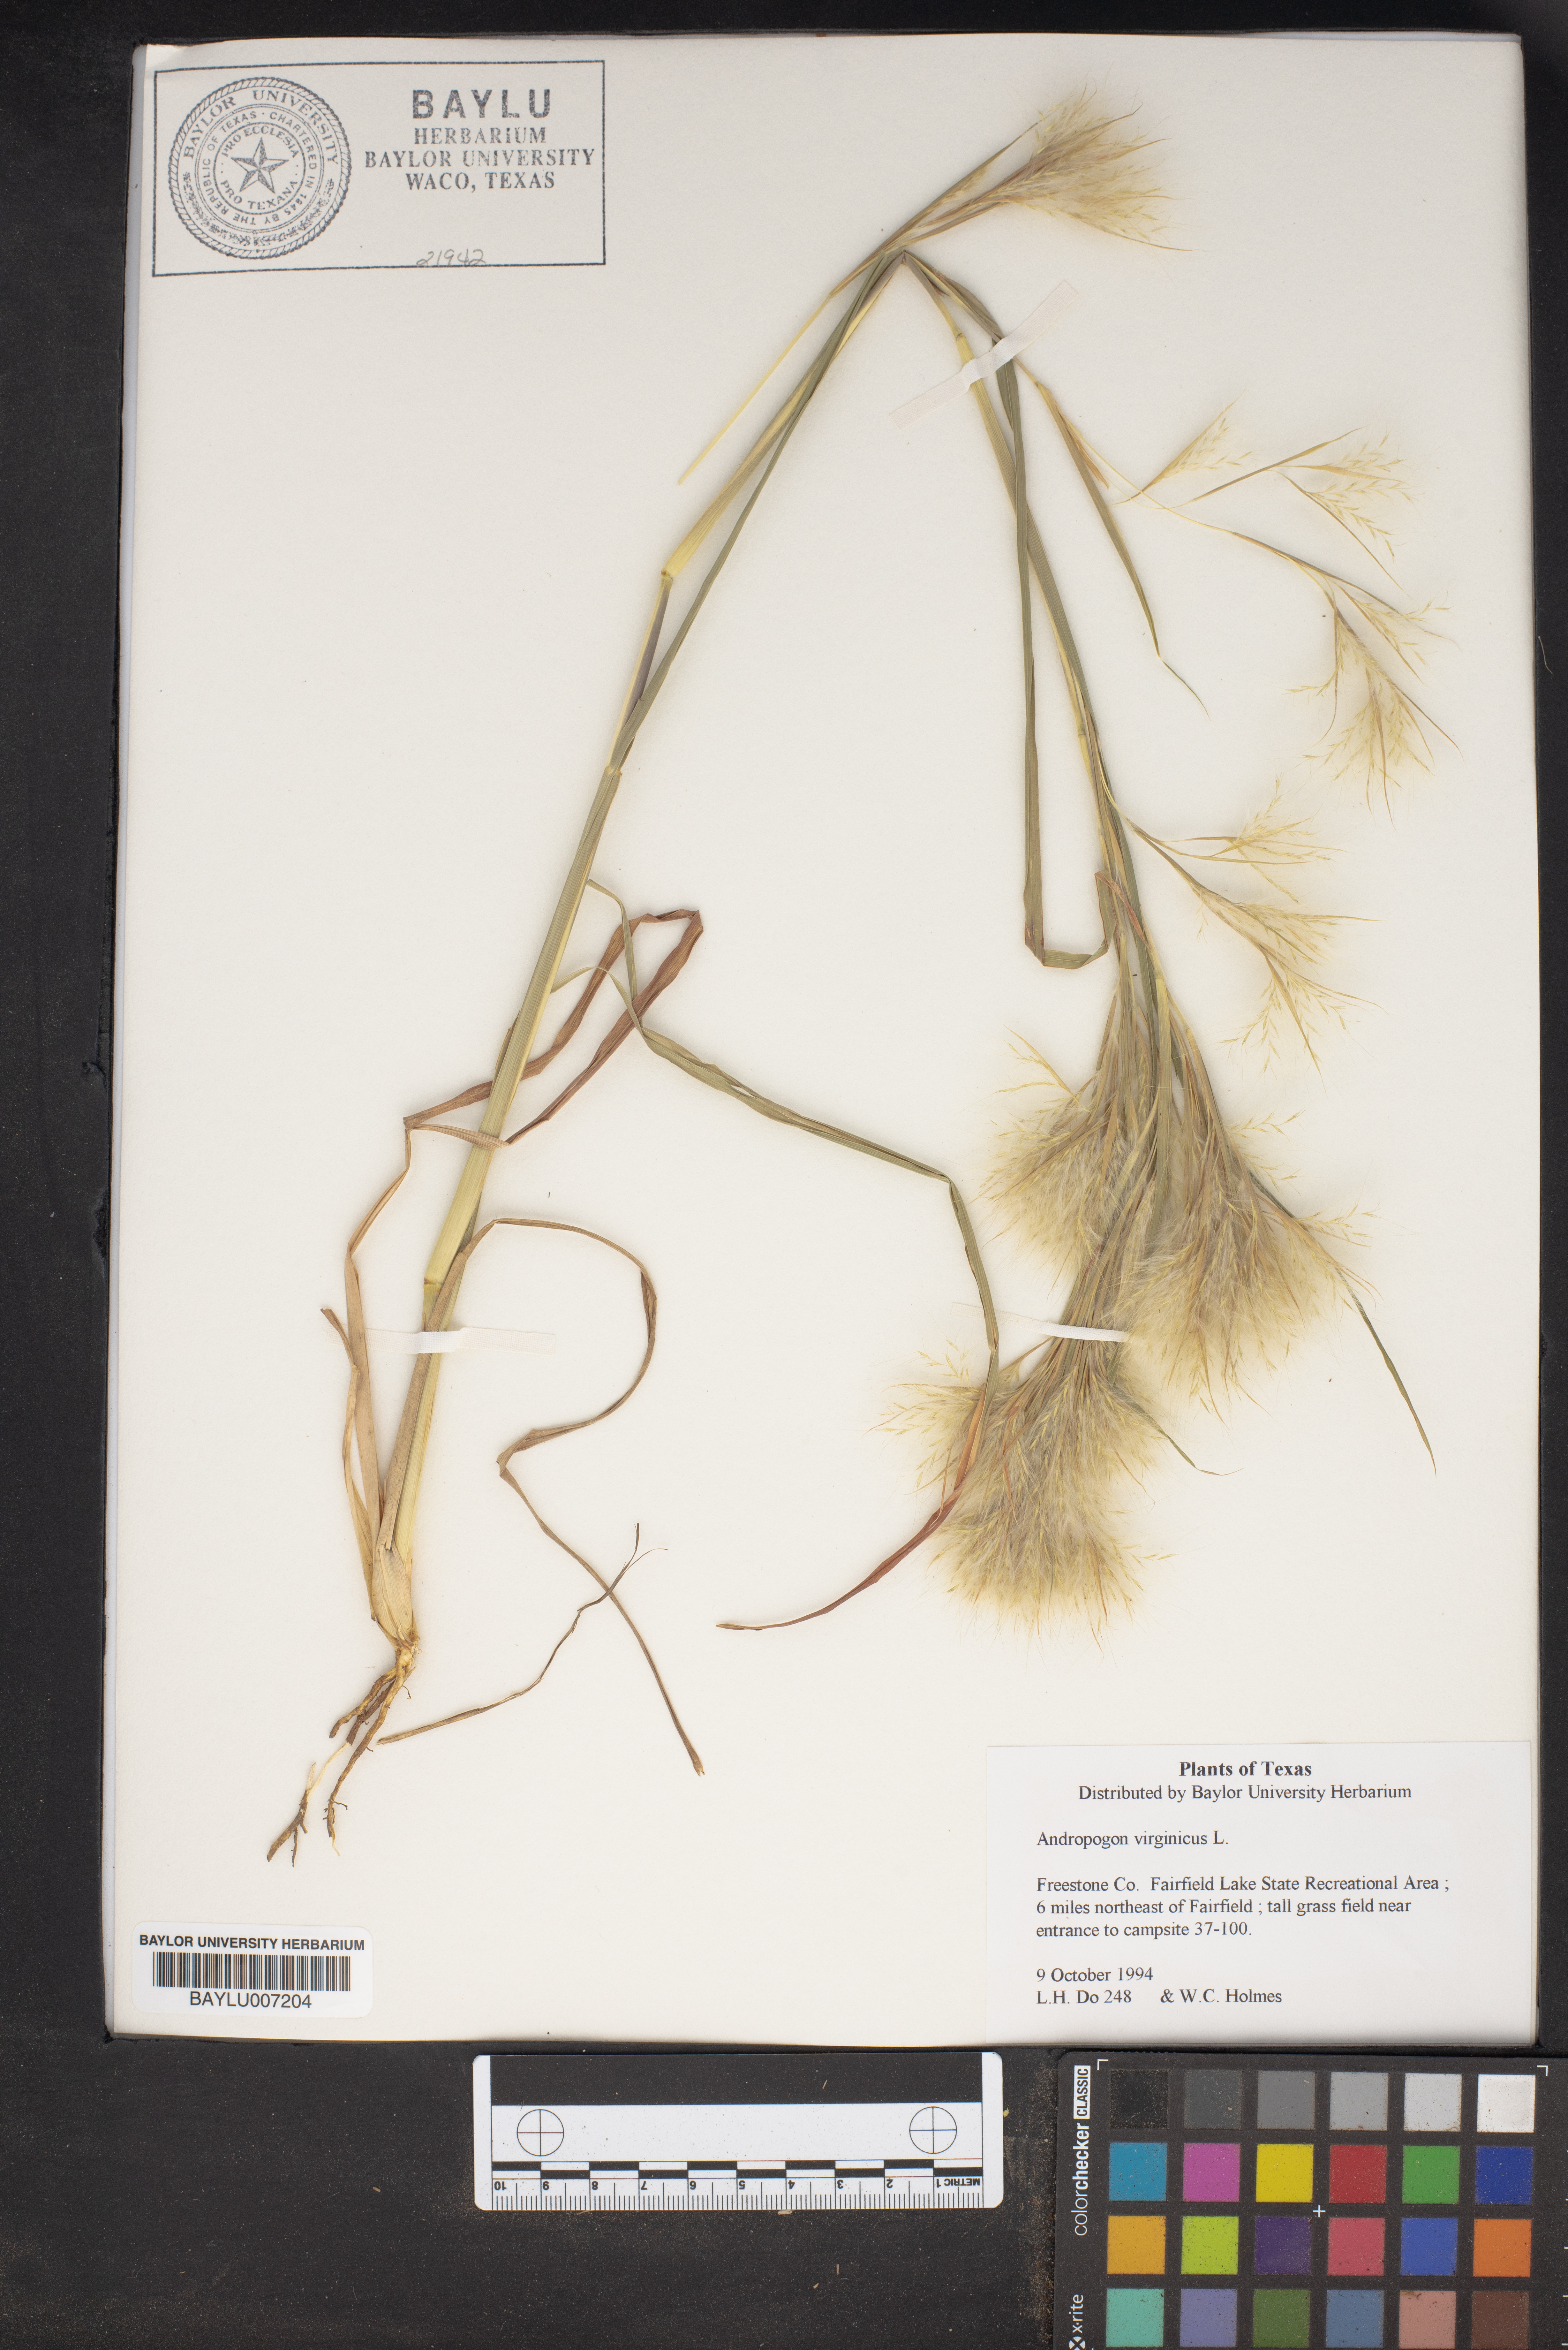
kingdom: Plantae
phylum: Tracheophyta
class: Liliopsida
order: Poales
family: Poaceae
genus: Andropogon
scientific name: Andropogon virginicus
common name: Broomsedge bluestem
